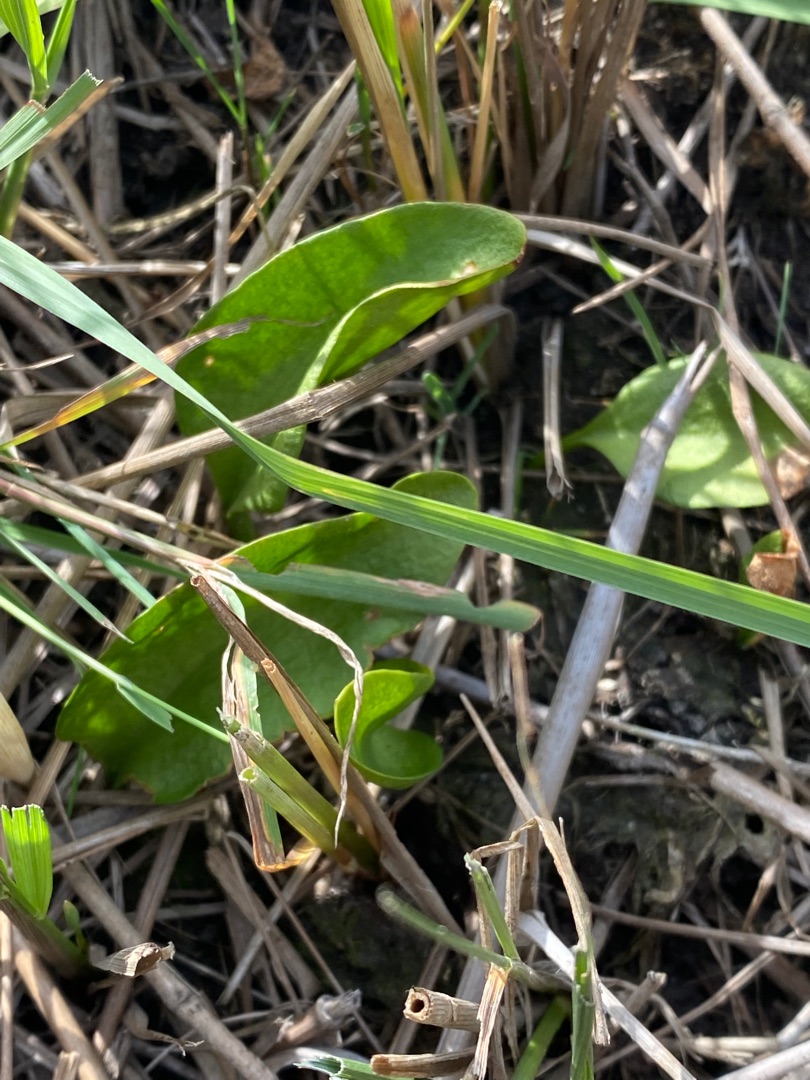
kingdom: Plantae
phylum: Tracheophyta
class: Polypodiopsida
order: Ophioglossales
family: Ophioglossaceae
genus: Ophioglossum
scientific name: Ophioglossum vulgatum
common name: Slangetunge
